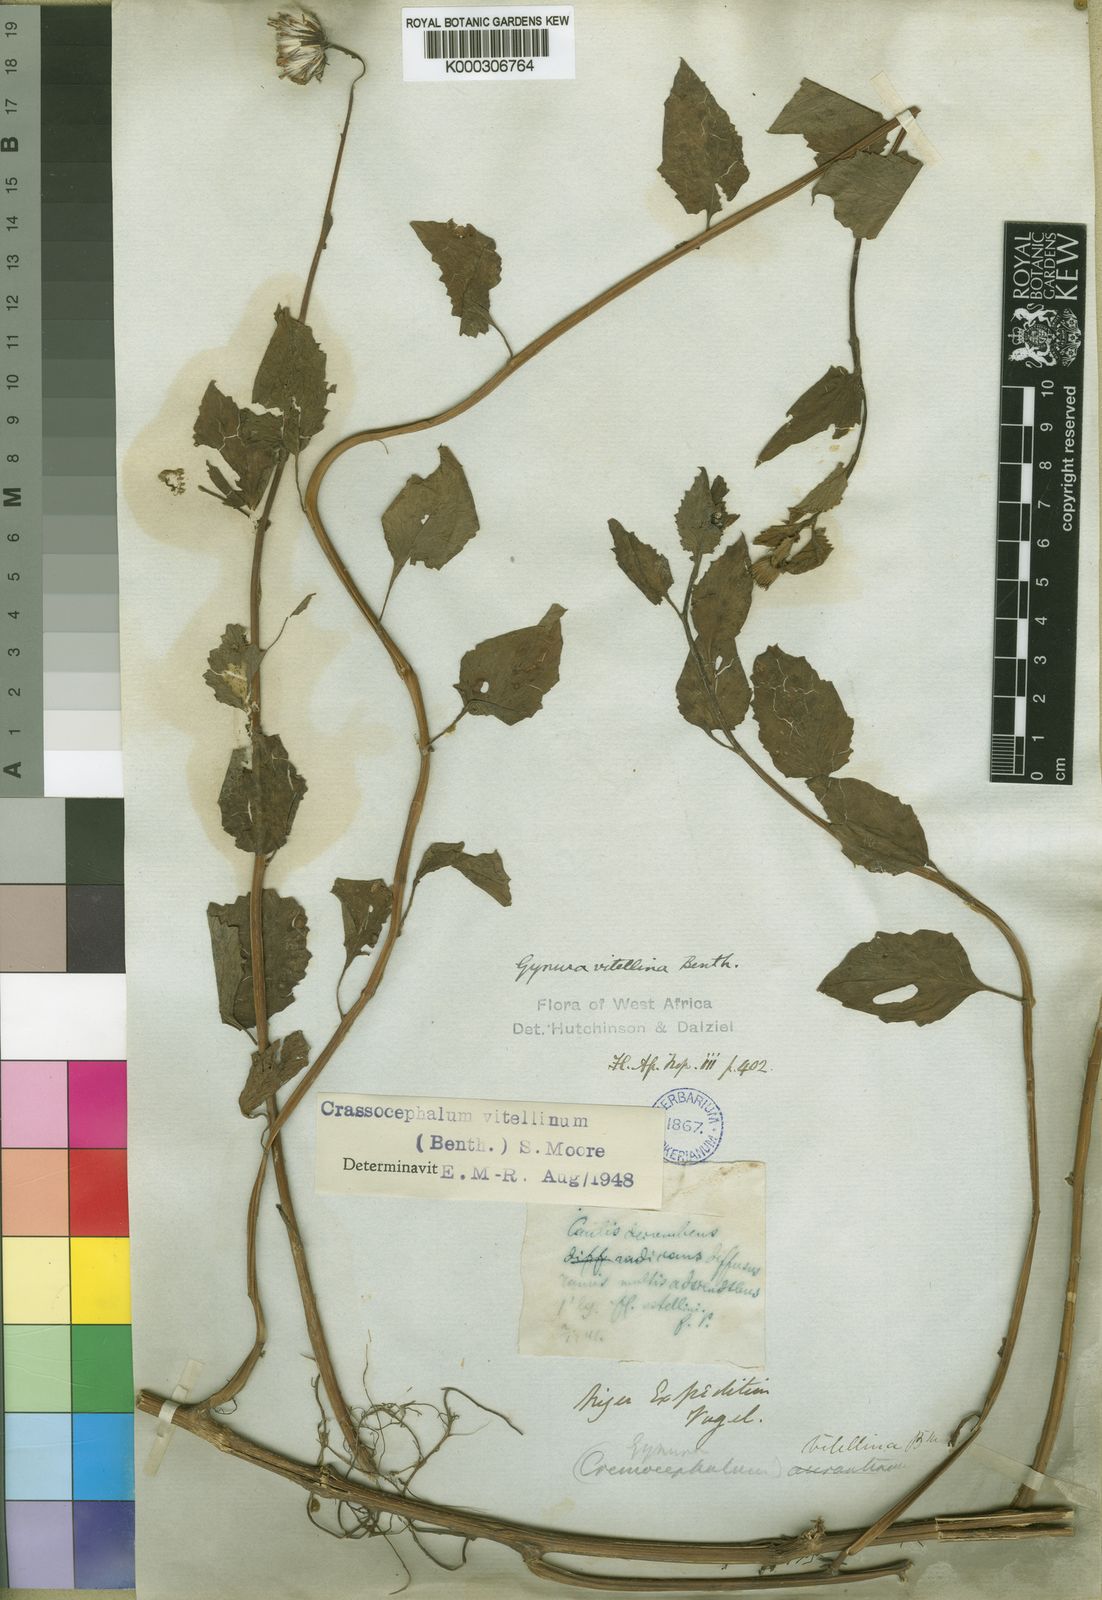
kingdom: Plantae
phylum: Tracheophyta
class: Magnoliopsida
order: Asterales
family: Asteraceae
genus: Crassocephalum
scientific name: Crassocephalum vitellinum
